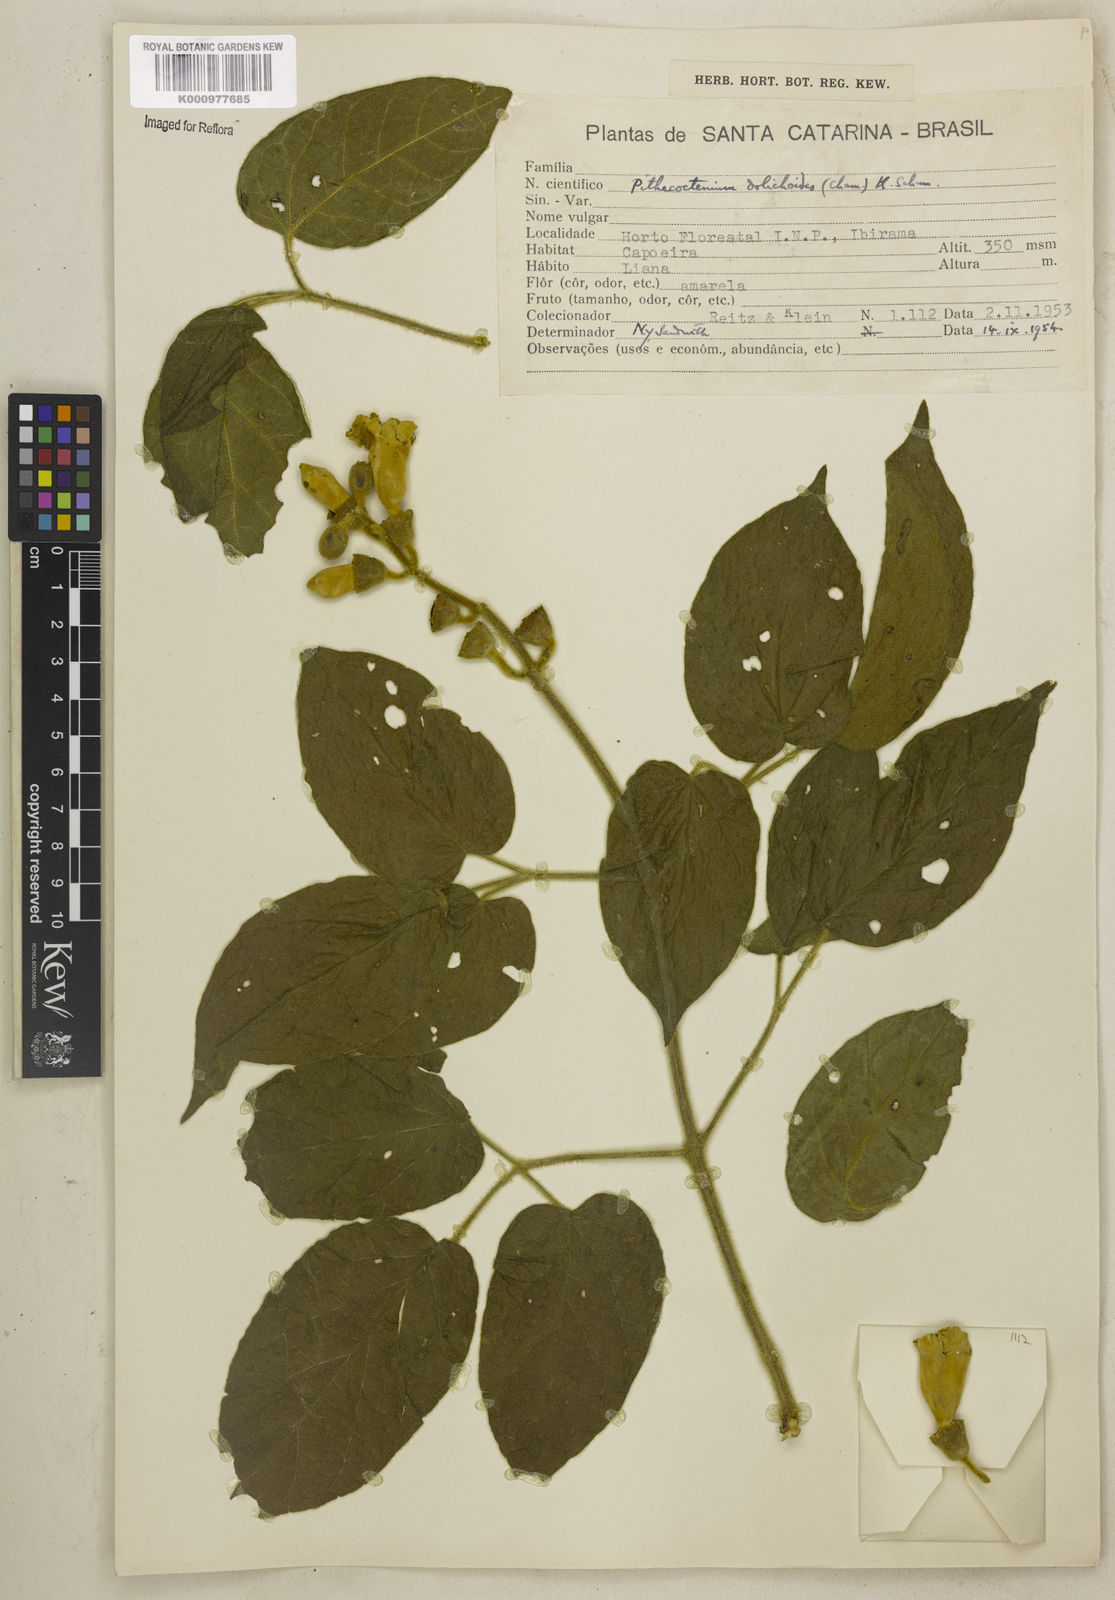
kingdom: Plantae
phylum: Tracheophyta
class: Magnoliopsida
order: Lamiales
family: Bignoniaceae
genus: Amphilophium
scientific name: Amphilophium dolichoides
